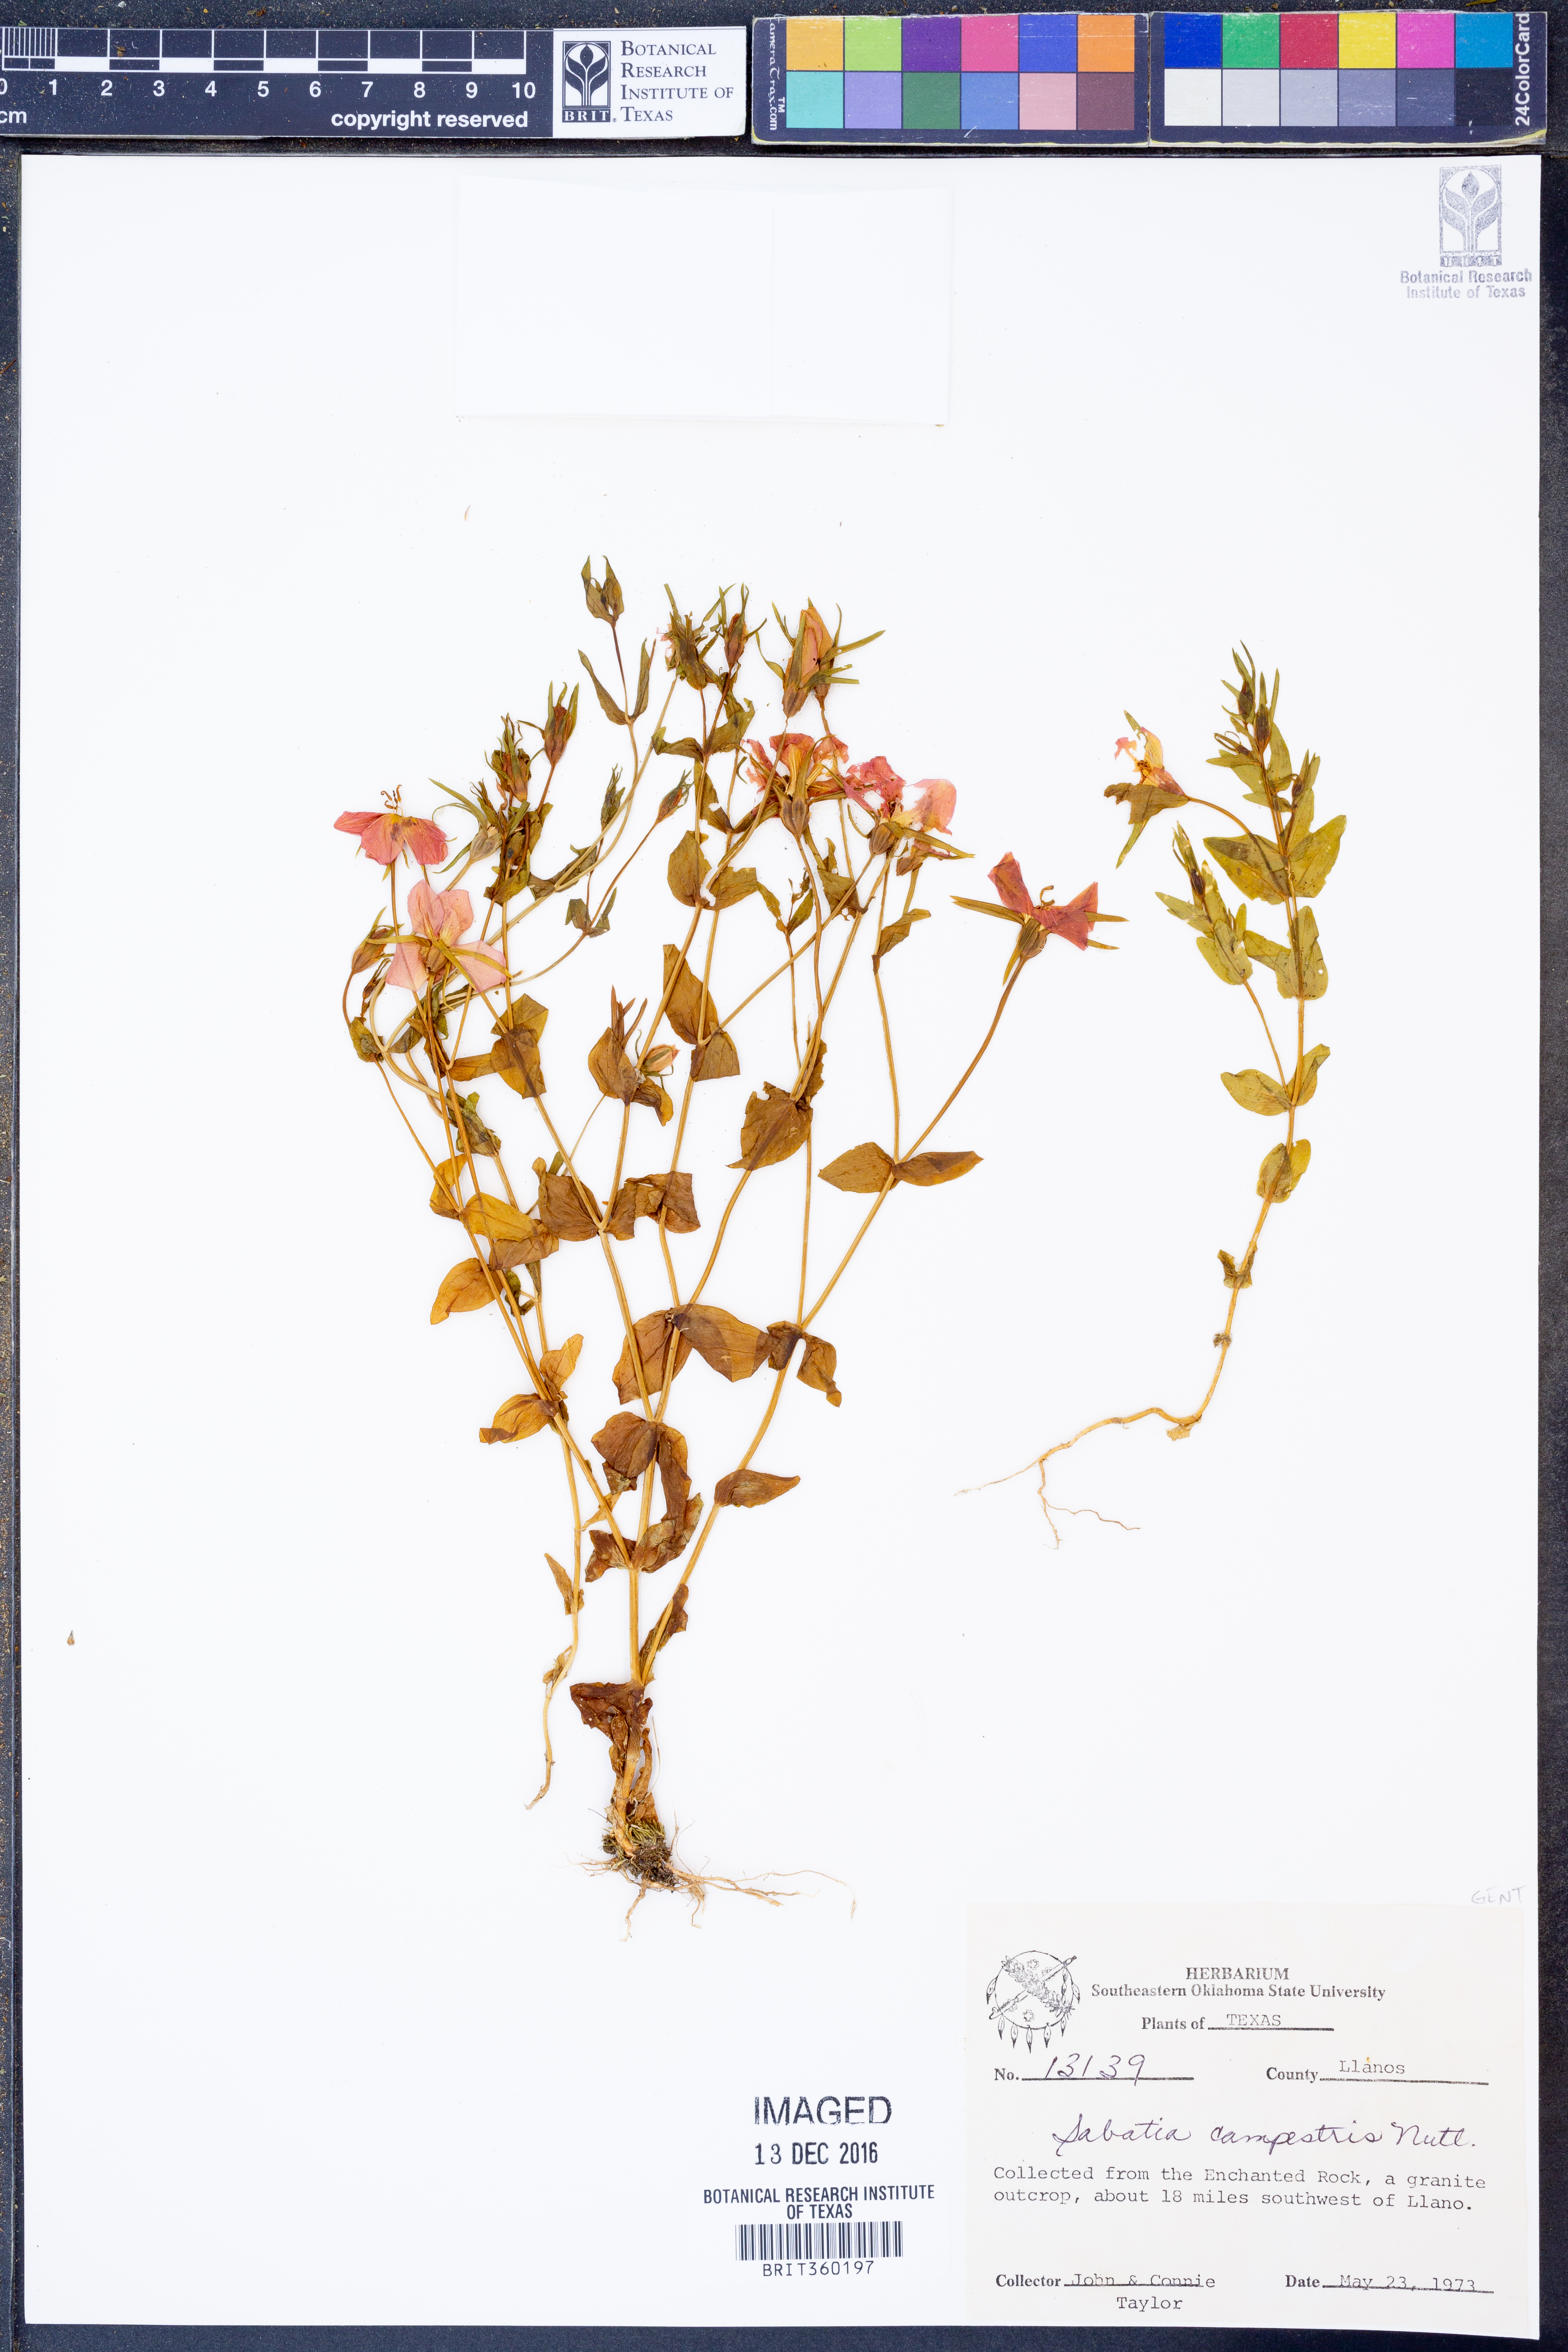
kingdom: Plantae
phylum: Tracheophyta
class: Magnoliopsida
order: Gentianales
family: Gentianaceae
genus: Sabatia
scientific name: Sabatia campestris
